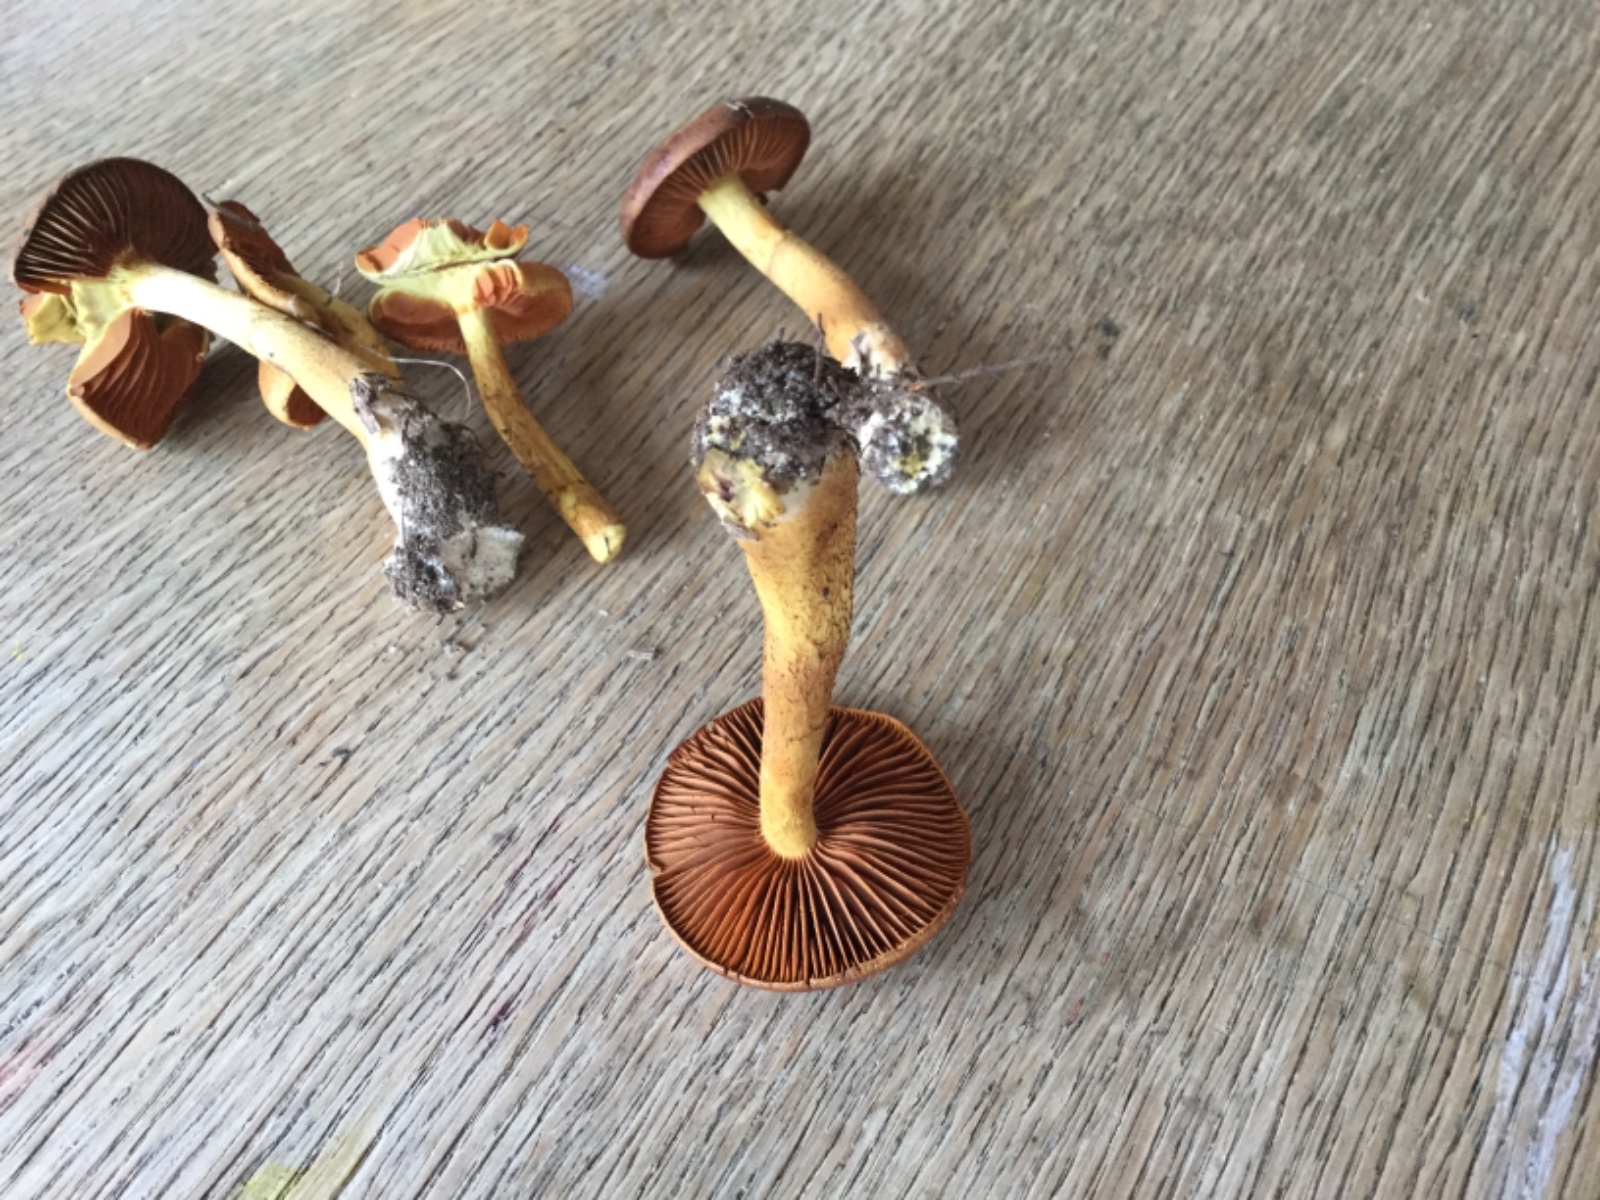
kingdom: Fungi
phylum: Basidiomycota
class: Agaricomycetes
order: Agaricales
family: Cortinariaceae
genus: Cortinarius
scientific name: Cortinarius eleonorae
